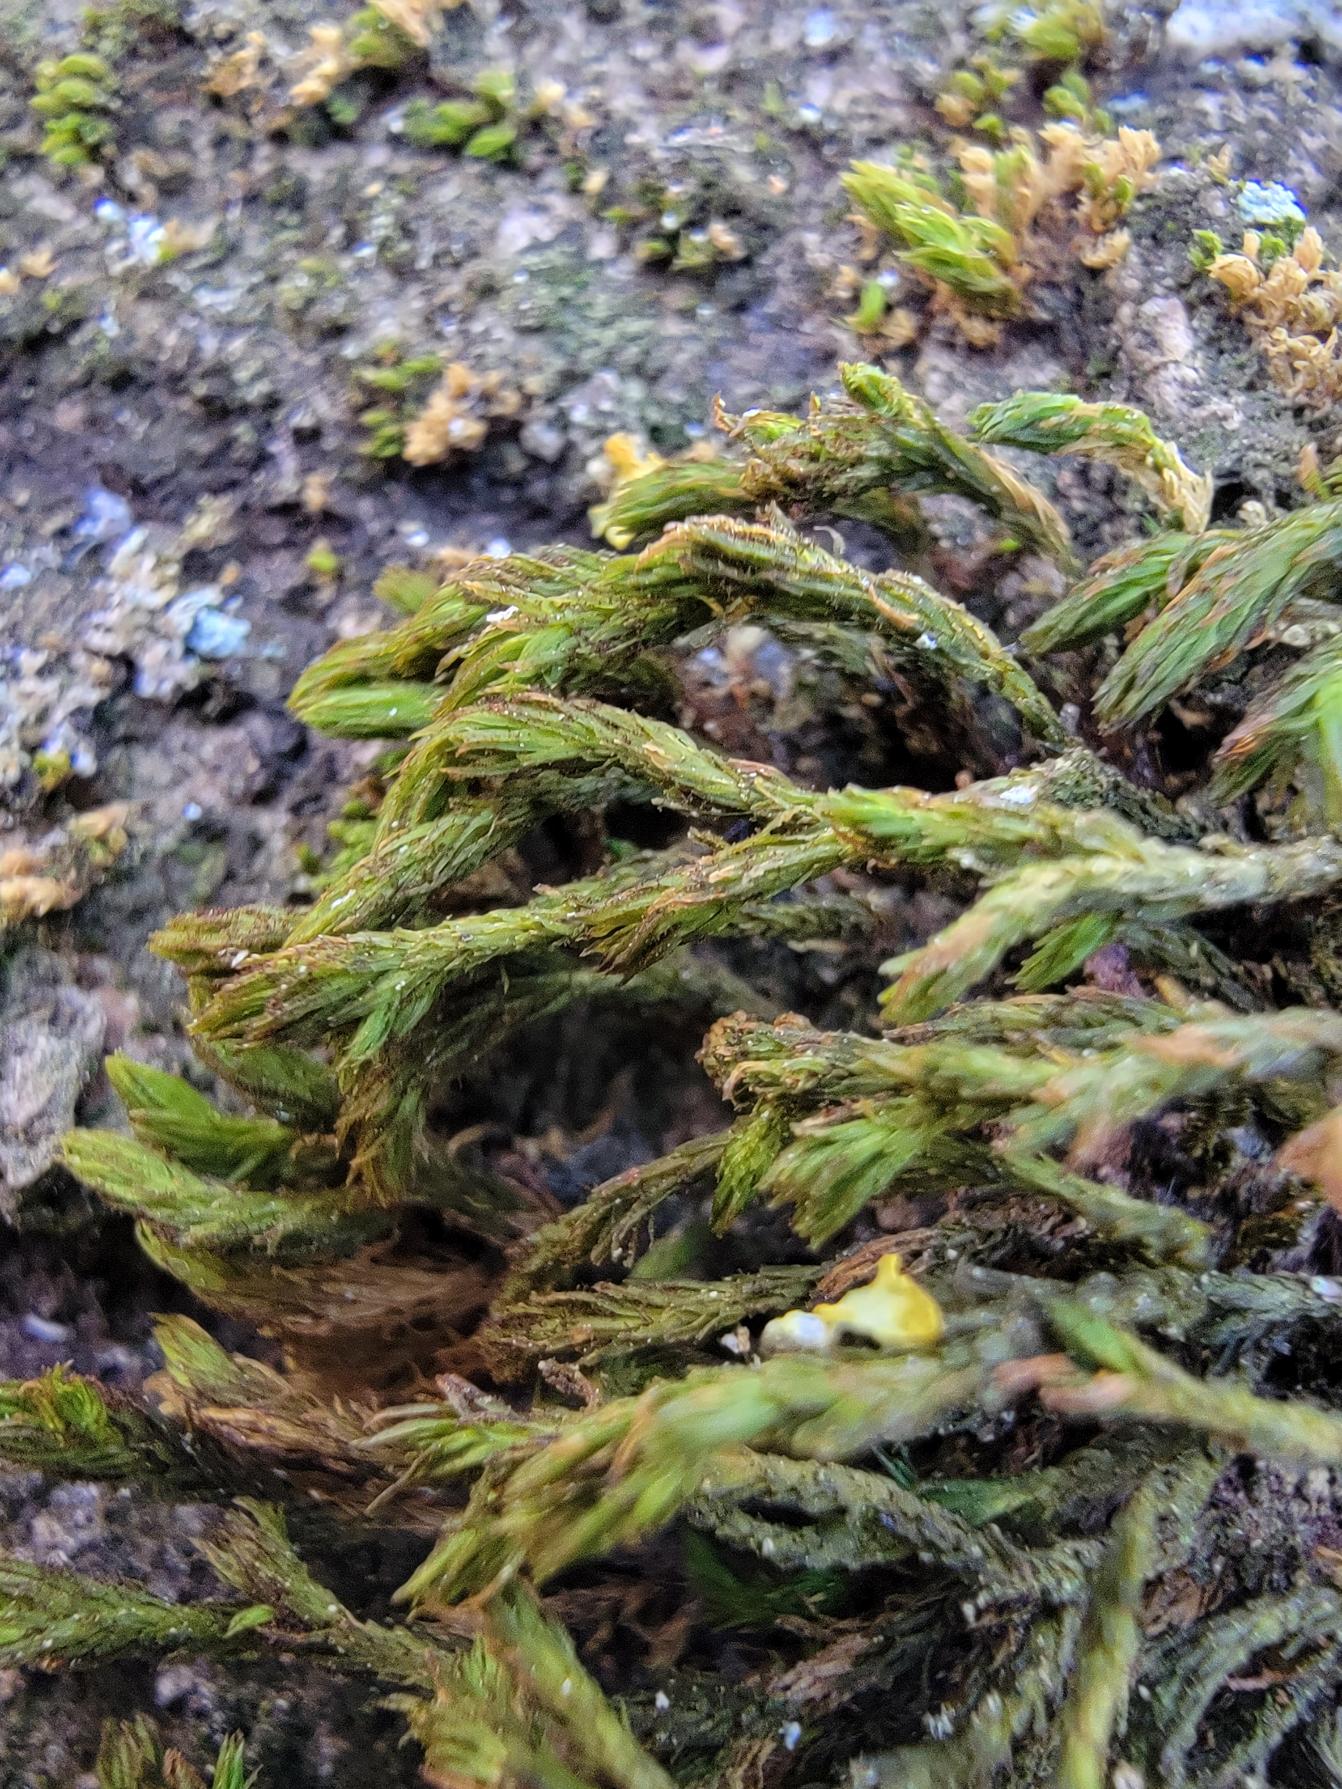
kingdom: Plantae
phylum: Bryophyta
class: Bryopsida
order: Orthotrichales
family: Orthotrichaceae
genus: Pulvigera
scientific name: Pulvigera lyellii
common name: Stor furehætte
